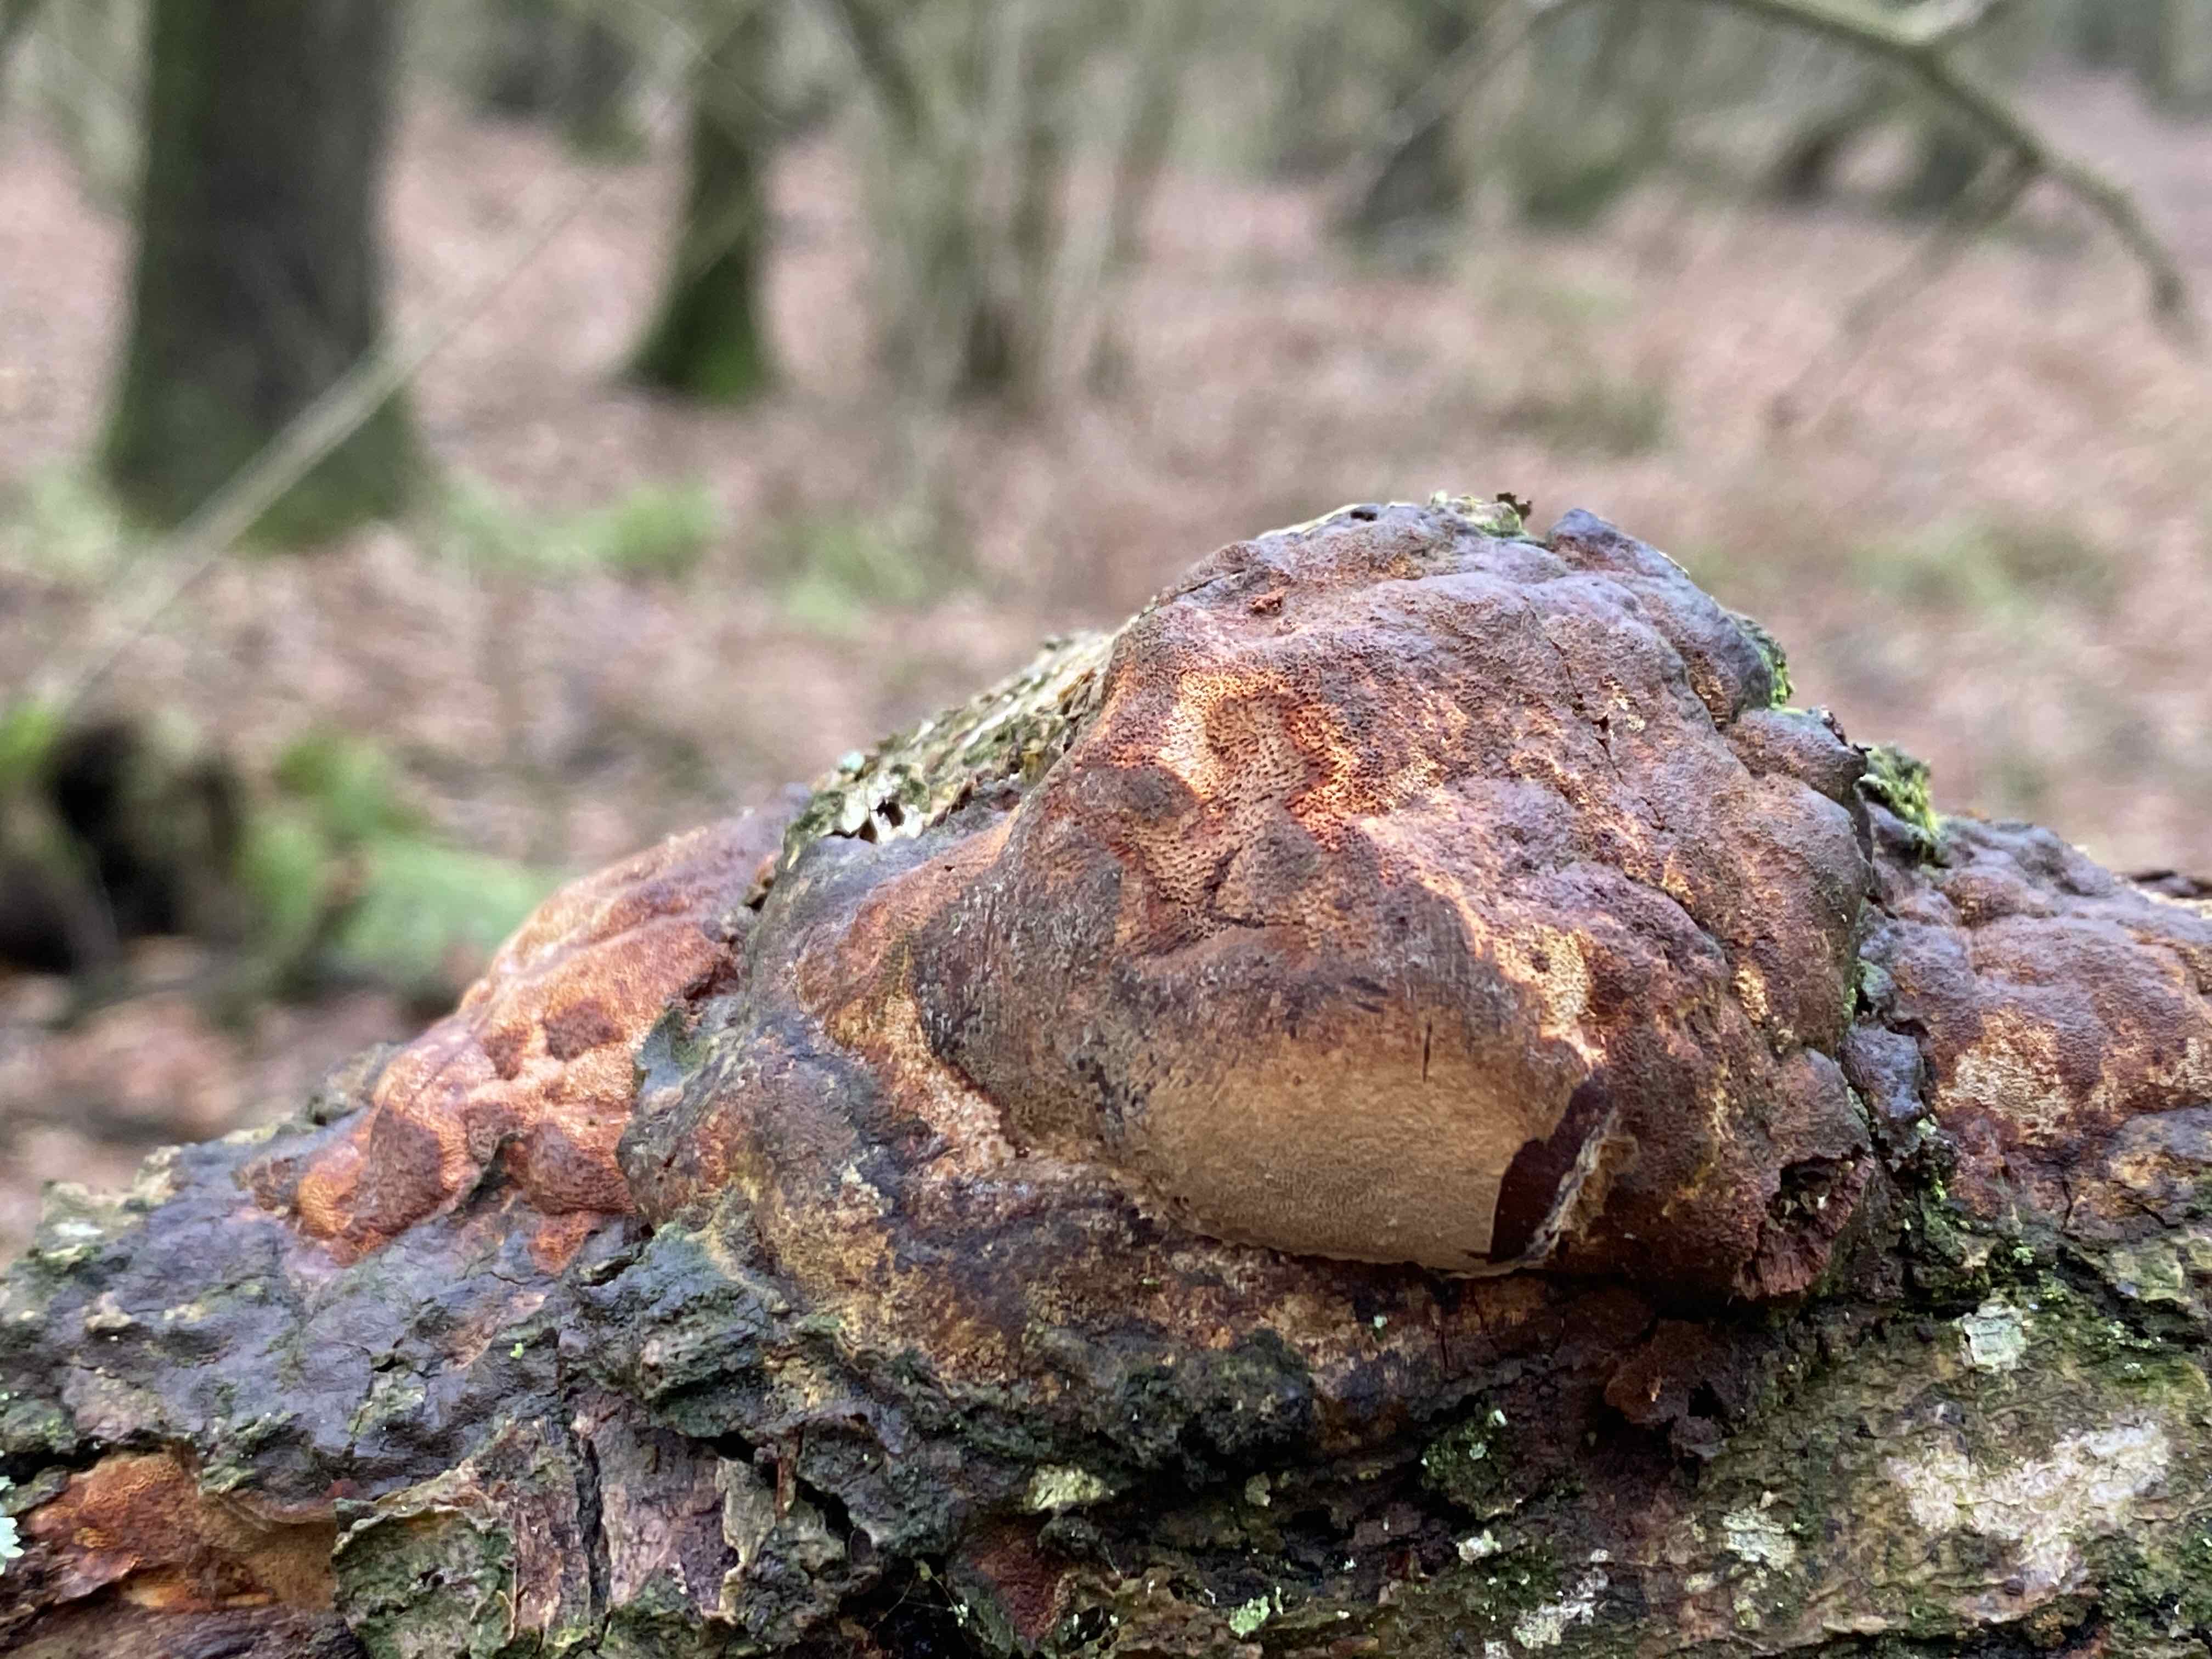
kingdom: Fungi
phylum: Basidiomycota
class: Agaricomycetes
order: Hymenochaetales
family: Hymenochaetaceae
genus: Fuscoporia
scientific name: Fuscoporia ferrea
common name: skorpe-ildporesvamp
